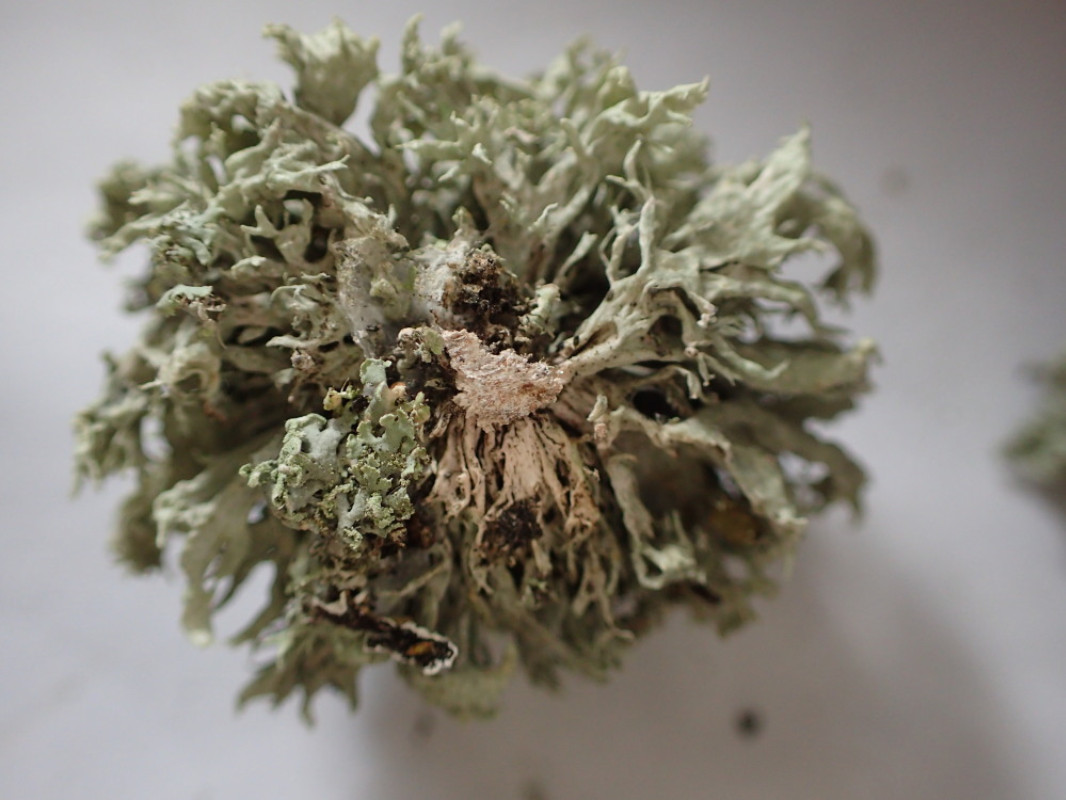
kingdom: Fungi
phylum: Ascomycota
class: Lecanoromycetes
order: Lecanorales
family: Ramalinaceae
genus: Ramalina
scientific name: Ramalina fastigiata
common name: tue-grenlav
